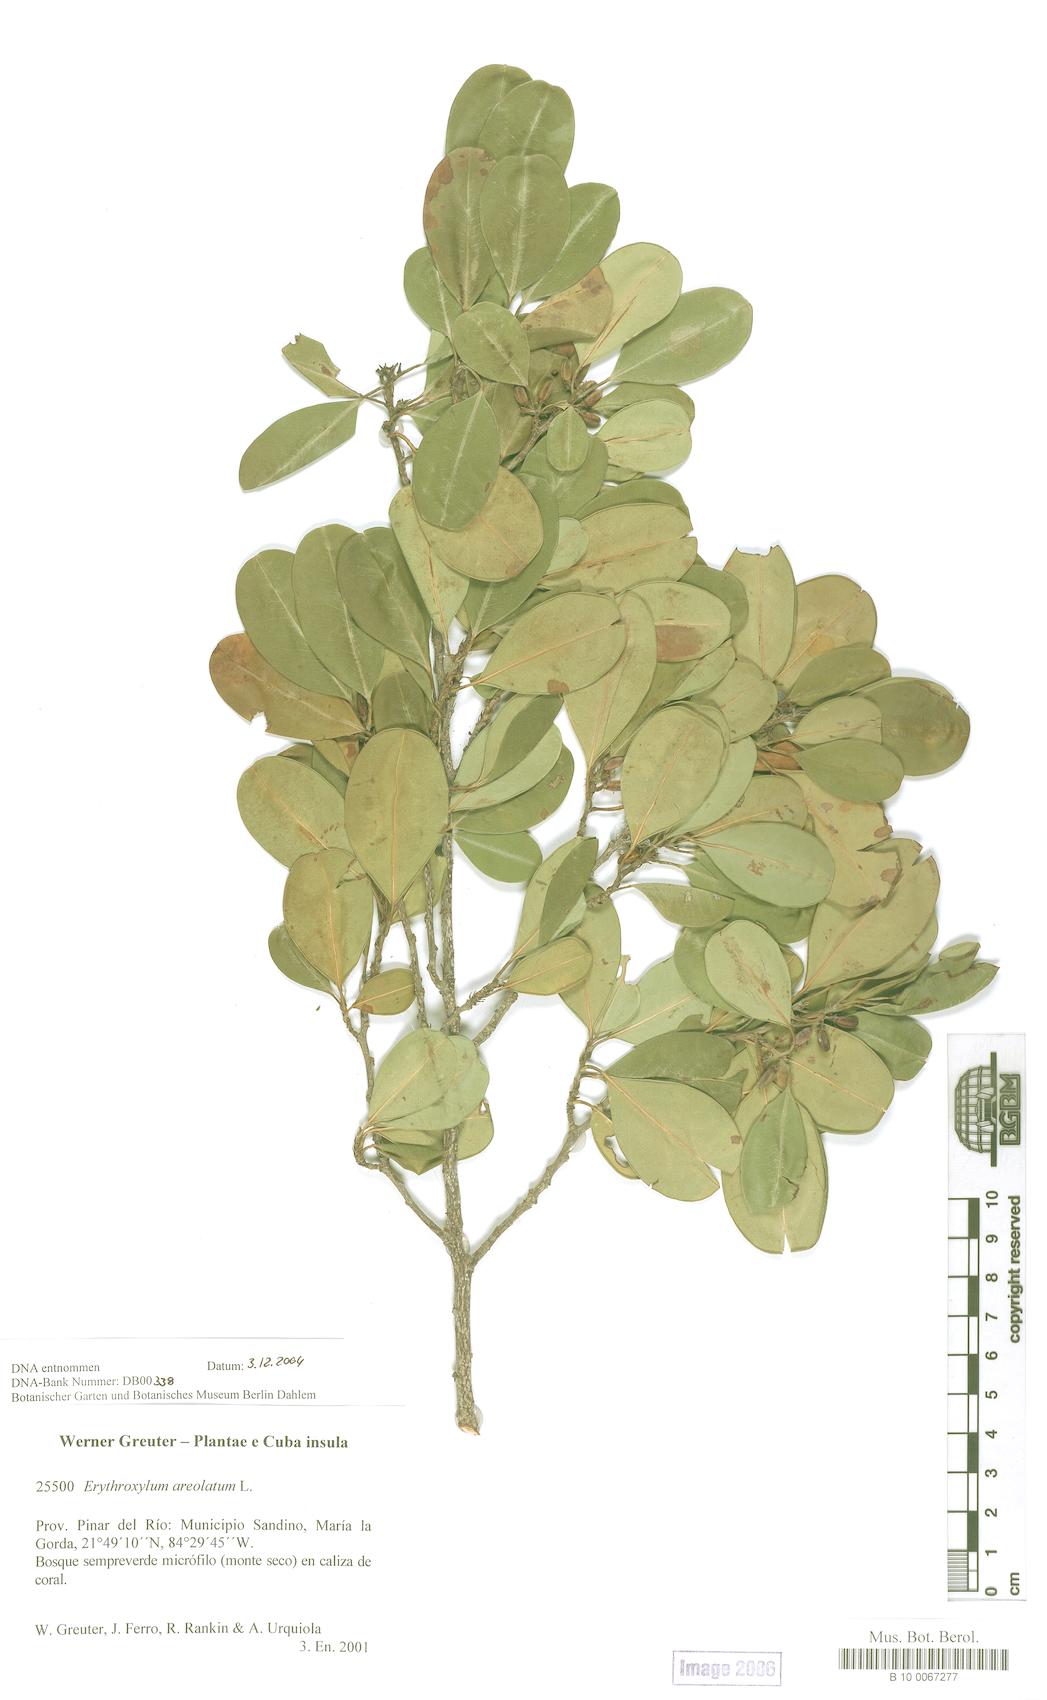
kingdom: Plantae
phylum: Tracheophyta
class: Magnoliopsida
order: Malpighiales
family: Erythroxylaceae
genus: Erythroxylum
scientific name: Erythroxylum areolatum
